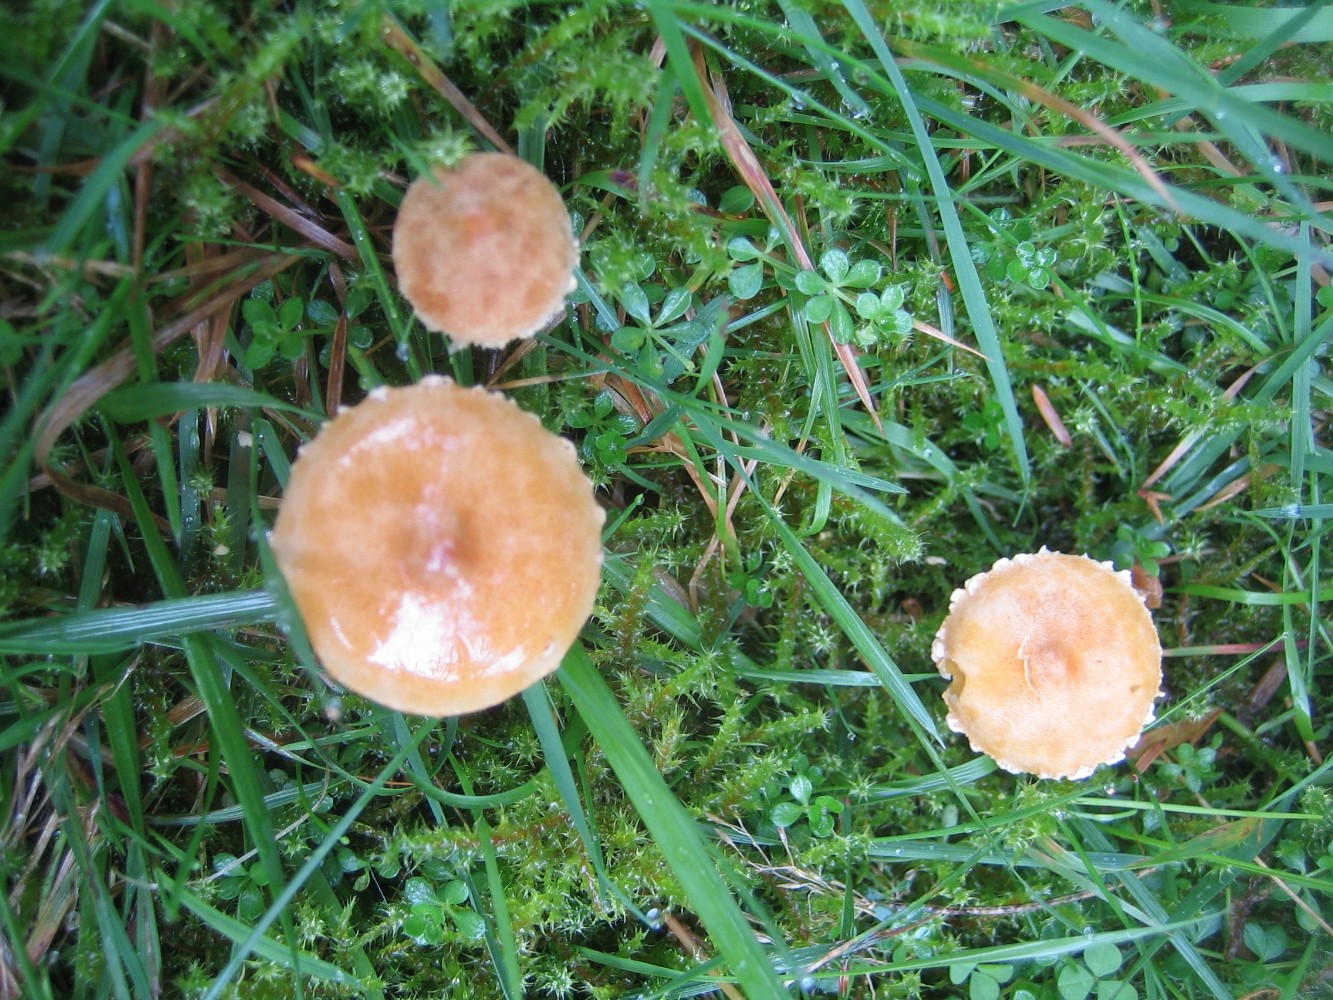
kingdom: Fungi
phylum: Basidiomycota
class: Agaricomycetes
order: Agaricales
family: Tricholomataceae
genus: Cystoderma
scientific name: Cystoderma amianthinum
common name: okkergul grynhat
